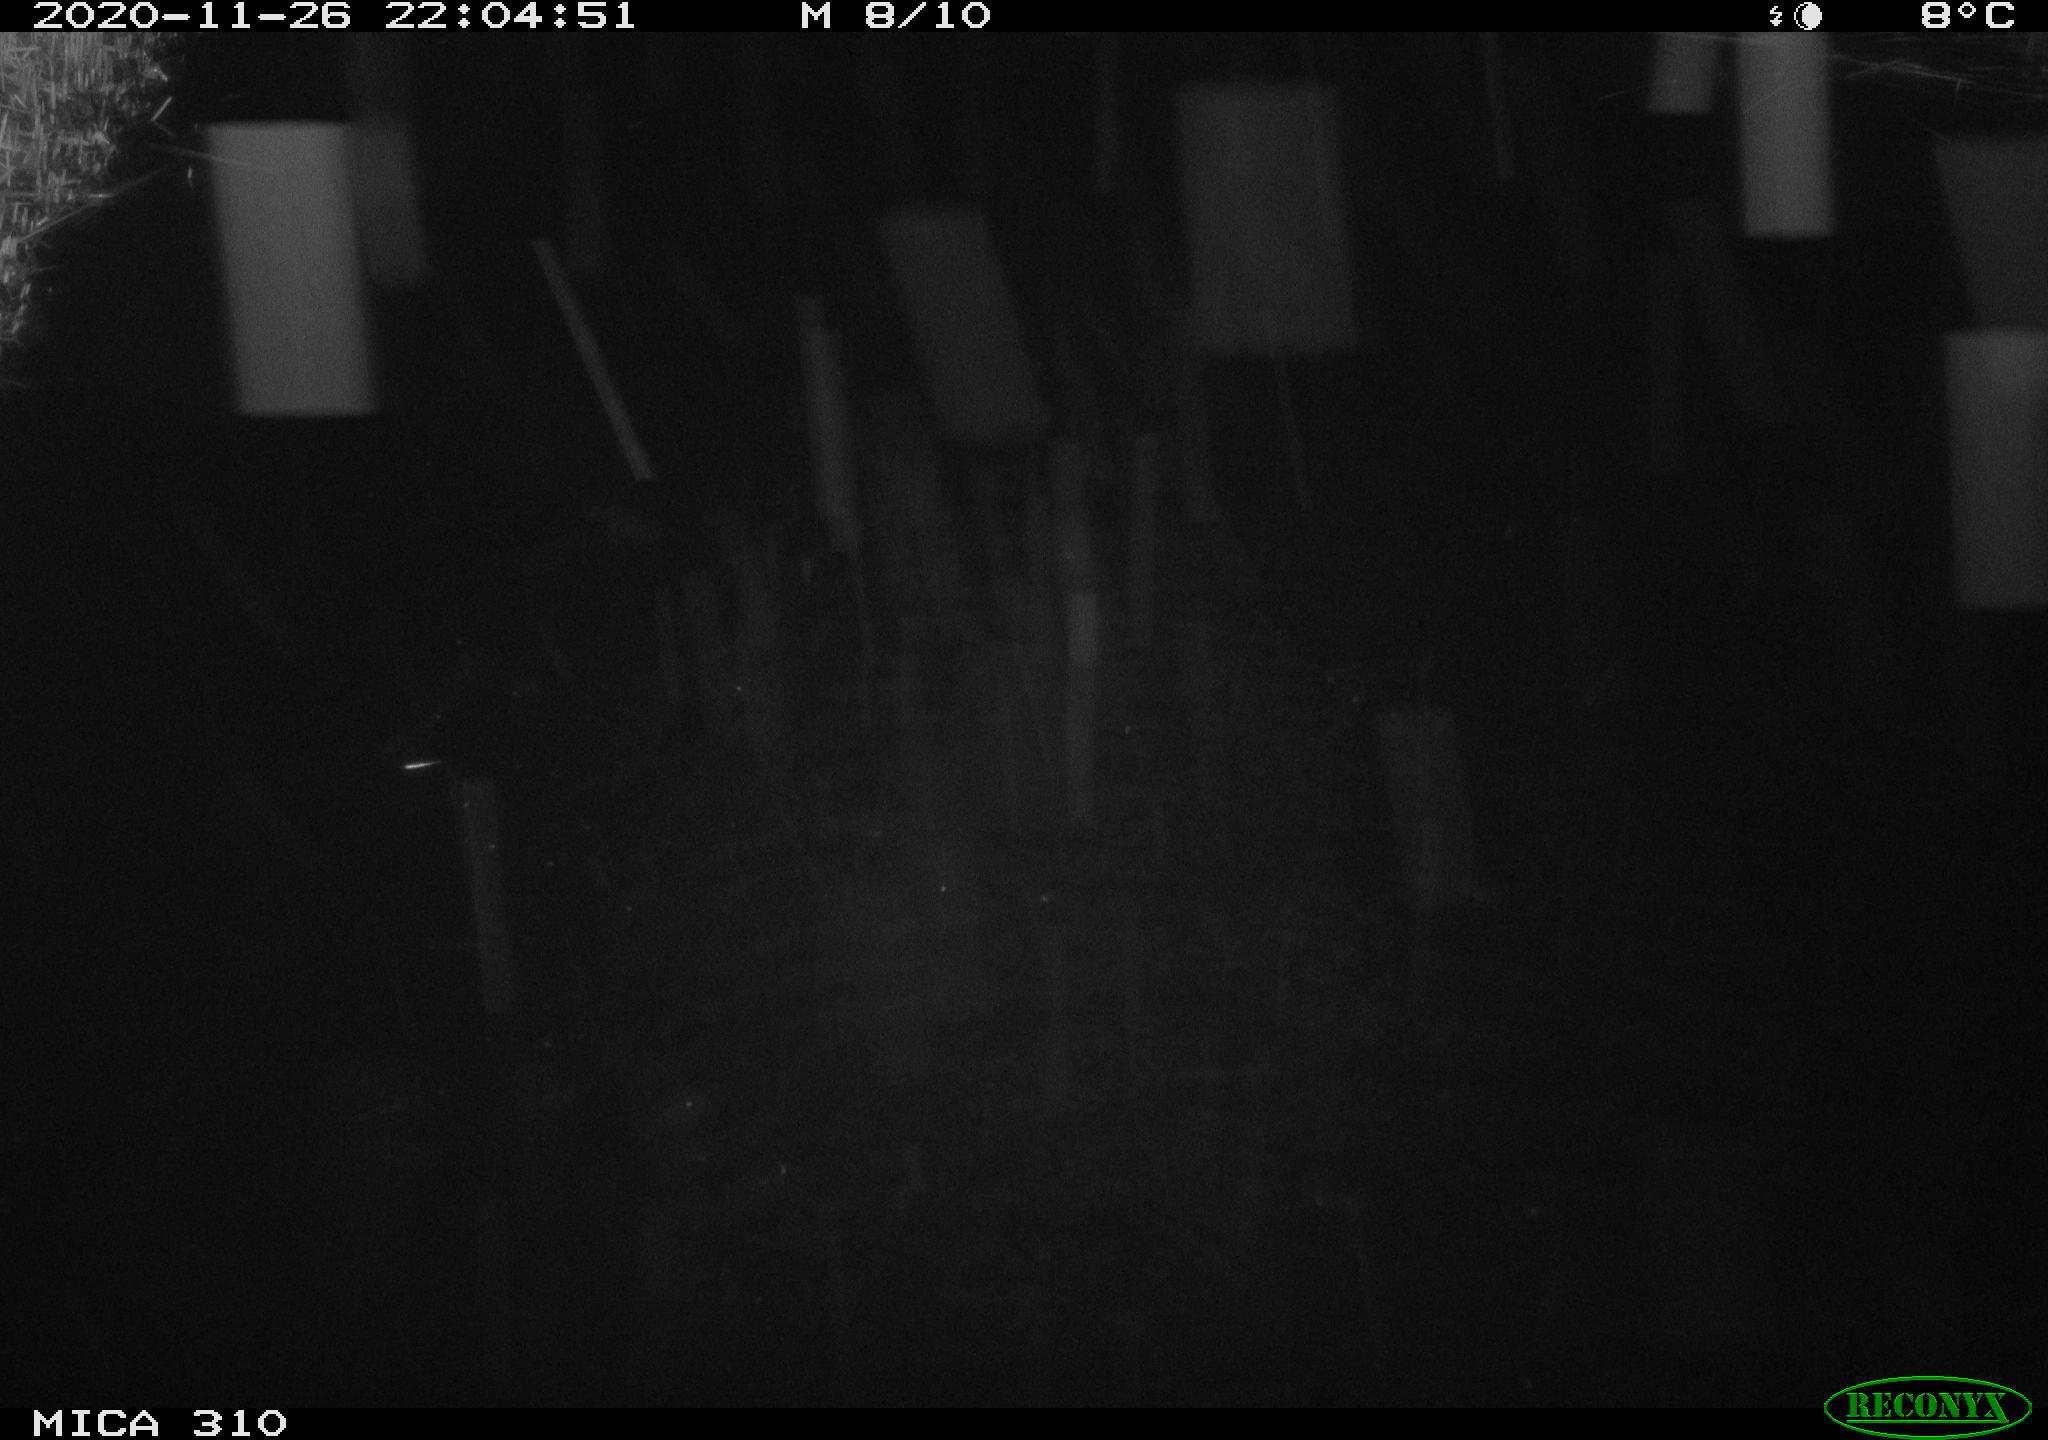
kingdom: Animalia
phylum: Chordata
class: Mammalia
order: Rodentia
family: Cricetidae
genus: Ondatra
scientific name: Ondatra zibethicus
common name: Muskrat
